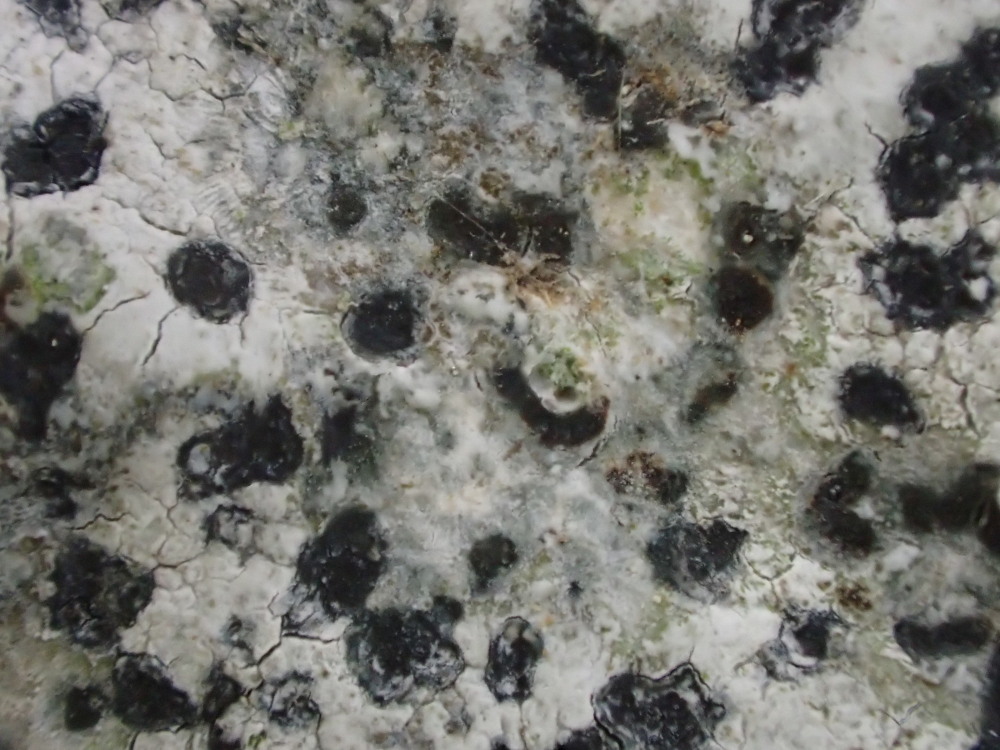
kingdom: Fungi
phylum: Ascomycota
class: Lecanoromycetes
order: Rhizocarpales
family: Rhizocarpaceae
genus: Rhizocarpon
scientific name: Rhizocarpon petraeum
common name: Rock-loving map lichen
